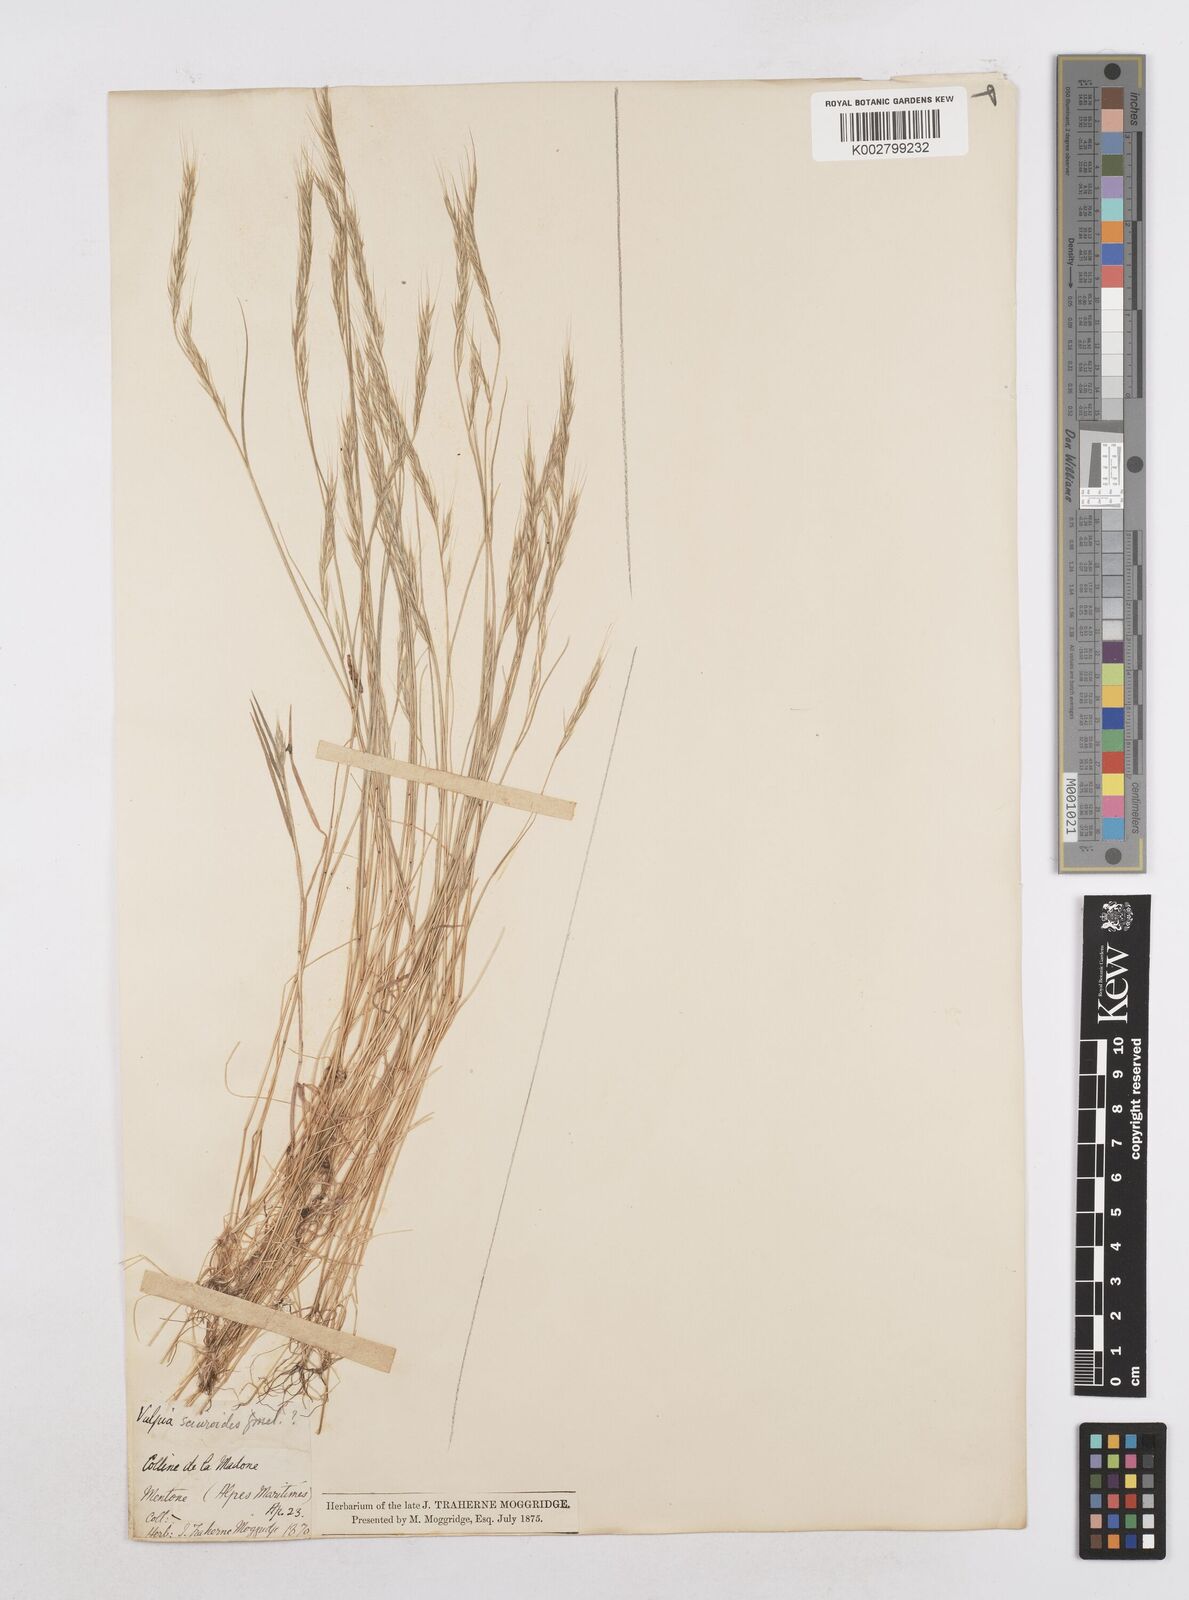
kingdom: Plantae
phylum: Tracheophyta
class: Liliopsida
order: Poales
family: Poaceae
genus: Festuca
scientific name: Festuca bromoides
